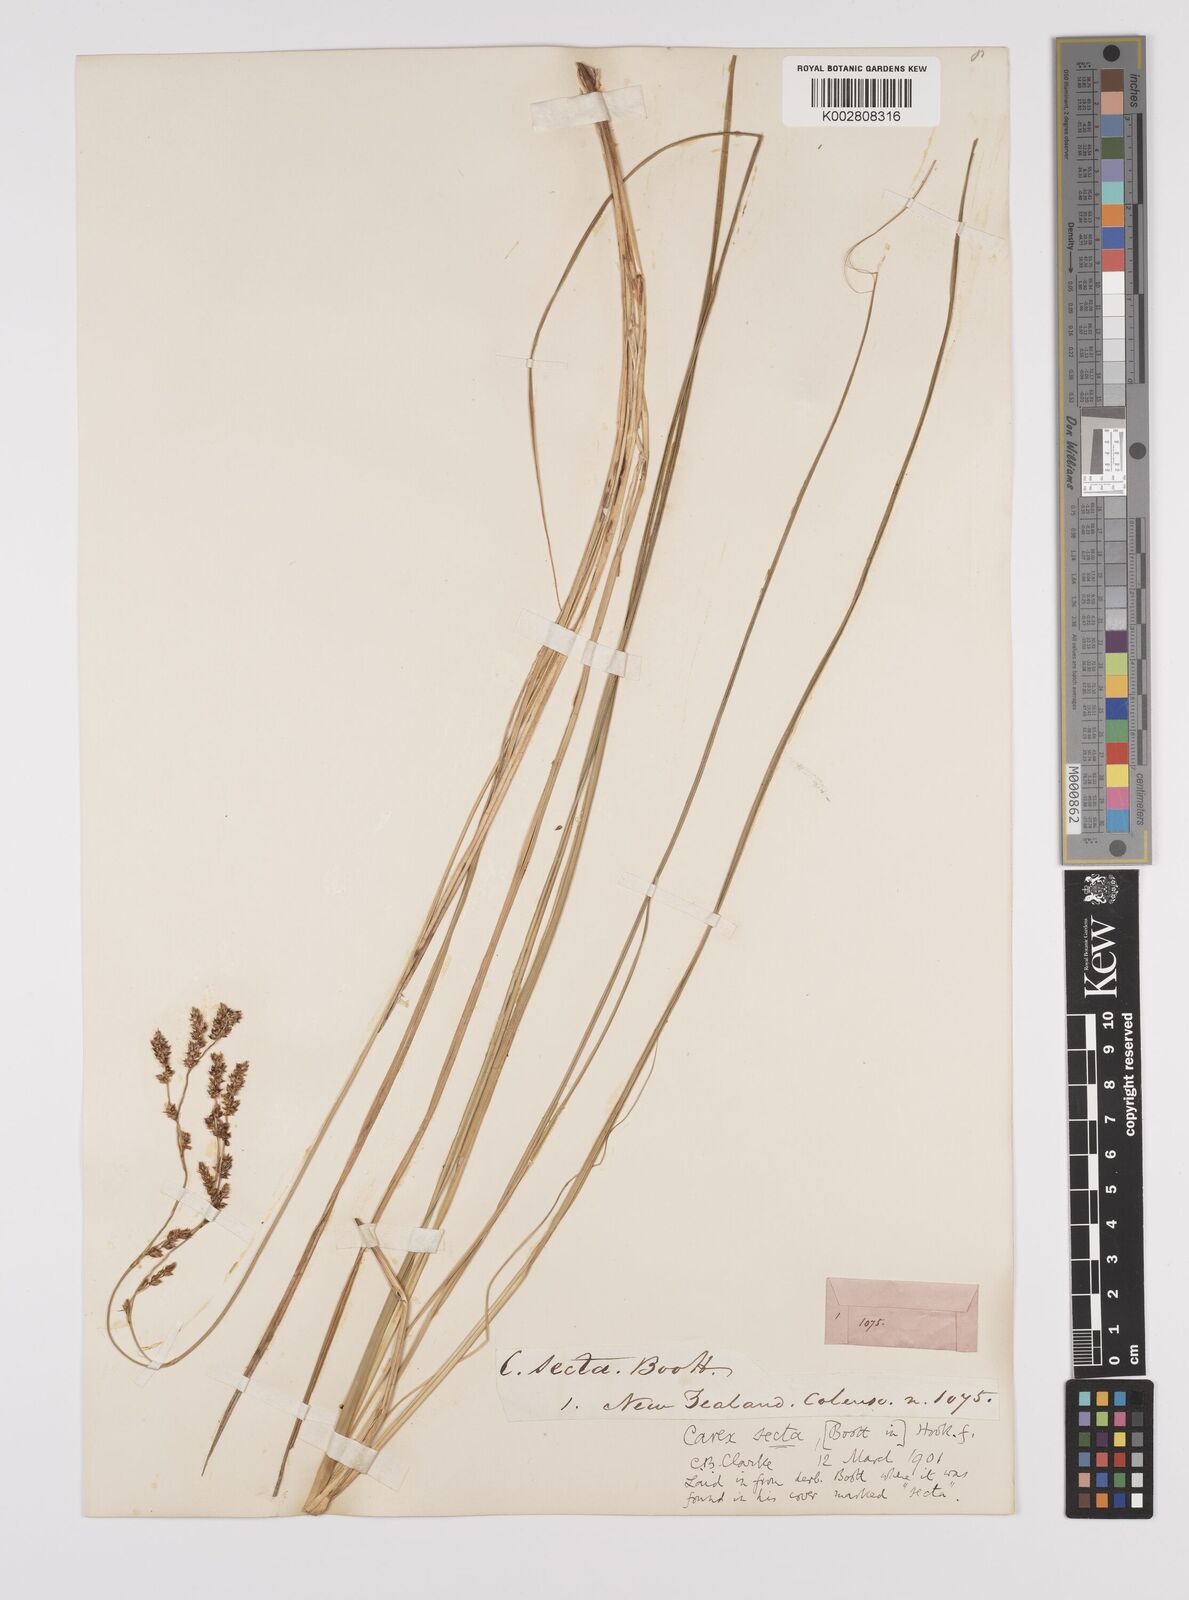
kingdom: Plantae
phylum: Tracheophyta
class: Liliopsida
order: Poales
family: Cyperaceae
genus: Carex
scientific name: Carex appressa
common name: Tussock sedge
